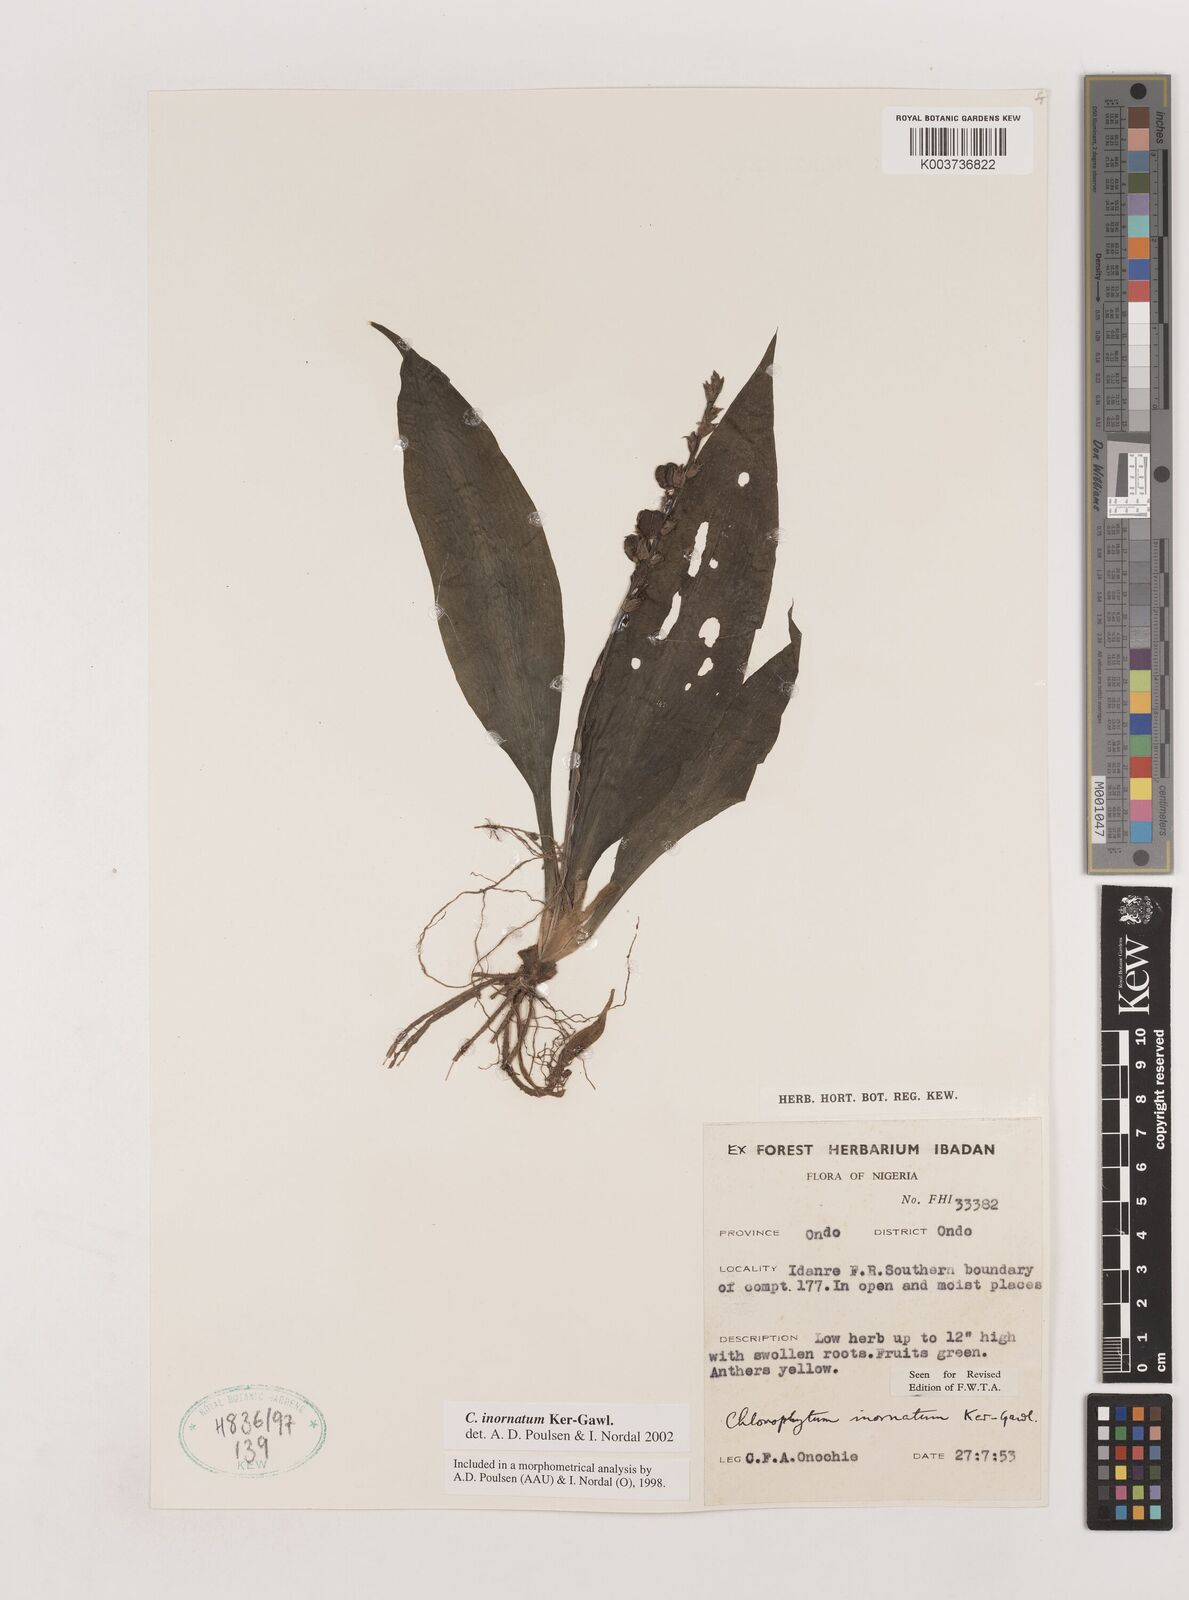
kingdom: Plantae
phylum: Tracheophyta
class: Liliopsida
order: Asparagales
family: Asparagaceae
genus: Chlorophytum
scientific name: Chlorophytum inornatum
